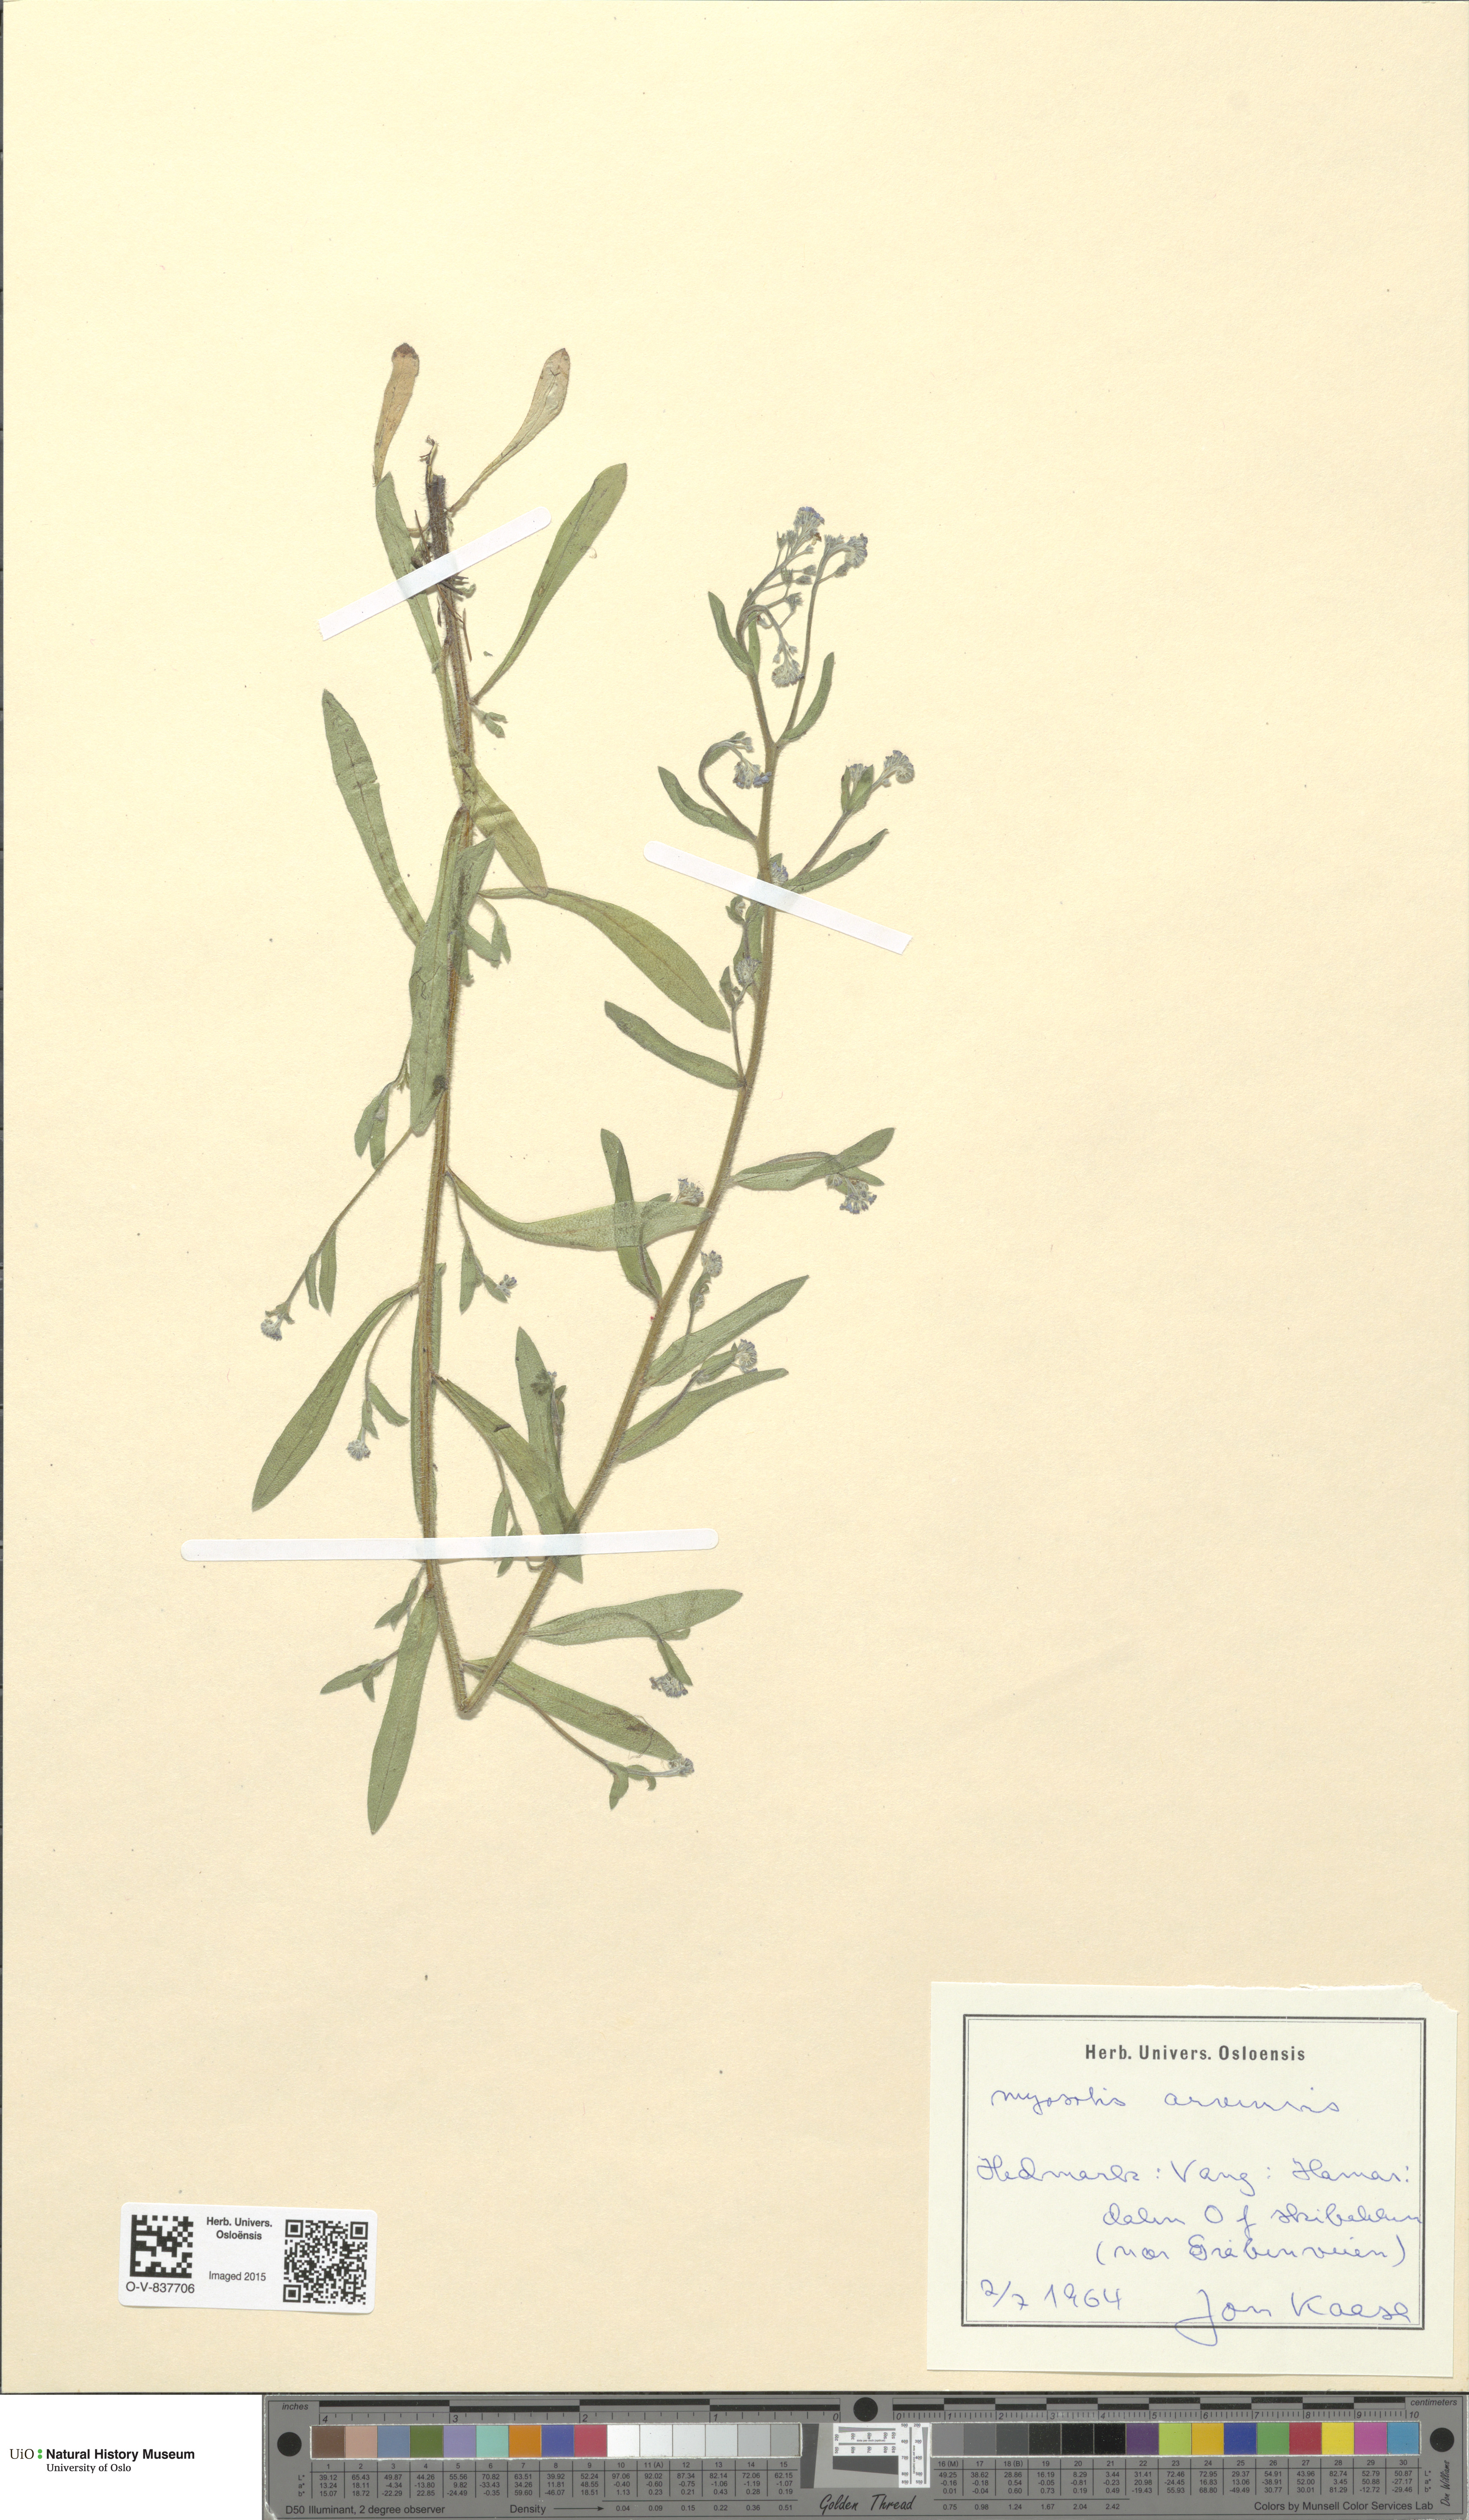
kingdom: Plantae
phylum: Tracheophyta
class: Magnoliopsida
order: Boraginales
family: Boraginaceae
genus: Myosotis
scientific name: Myosotis arvensis
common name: Field forget-me-not
